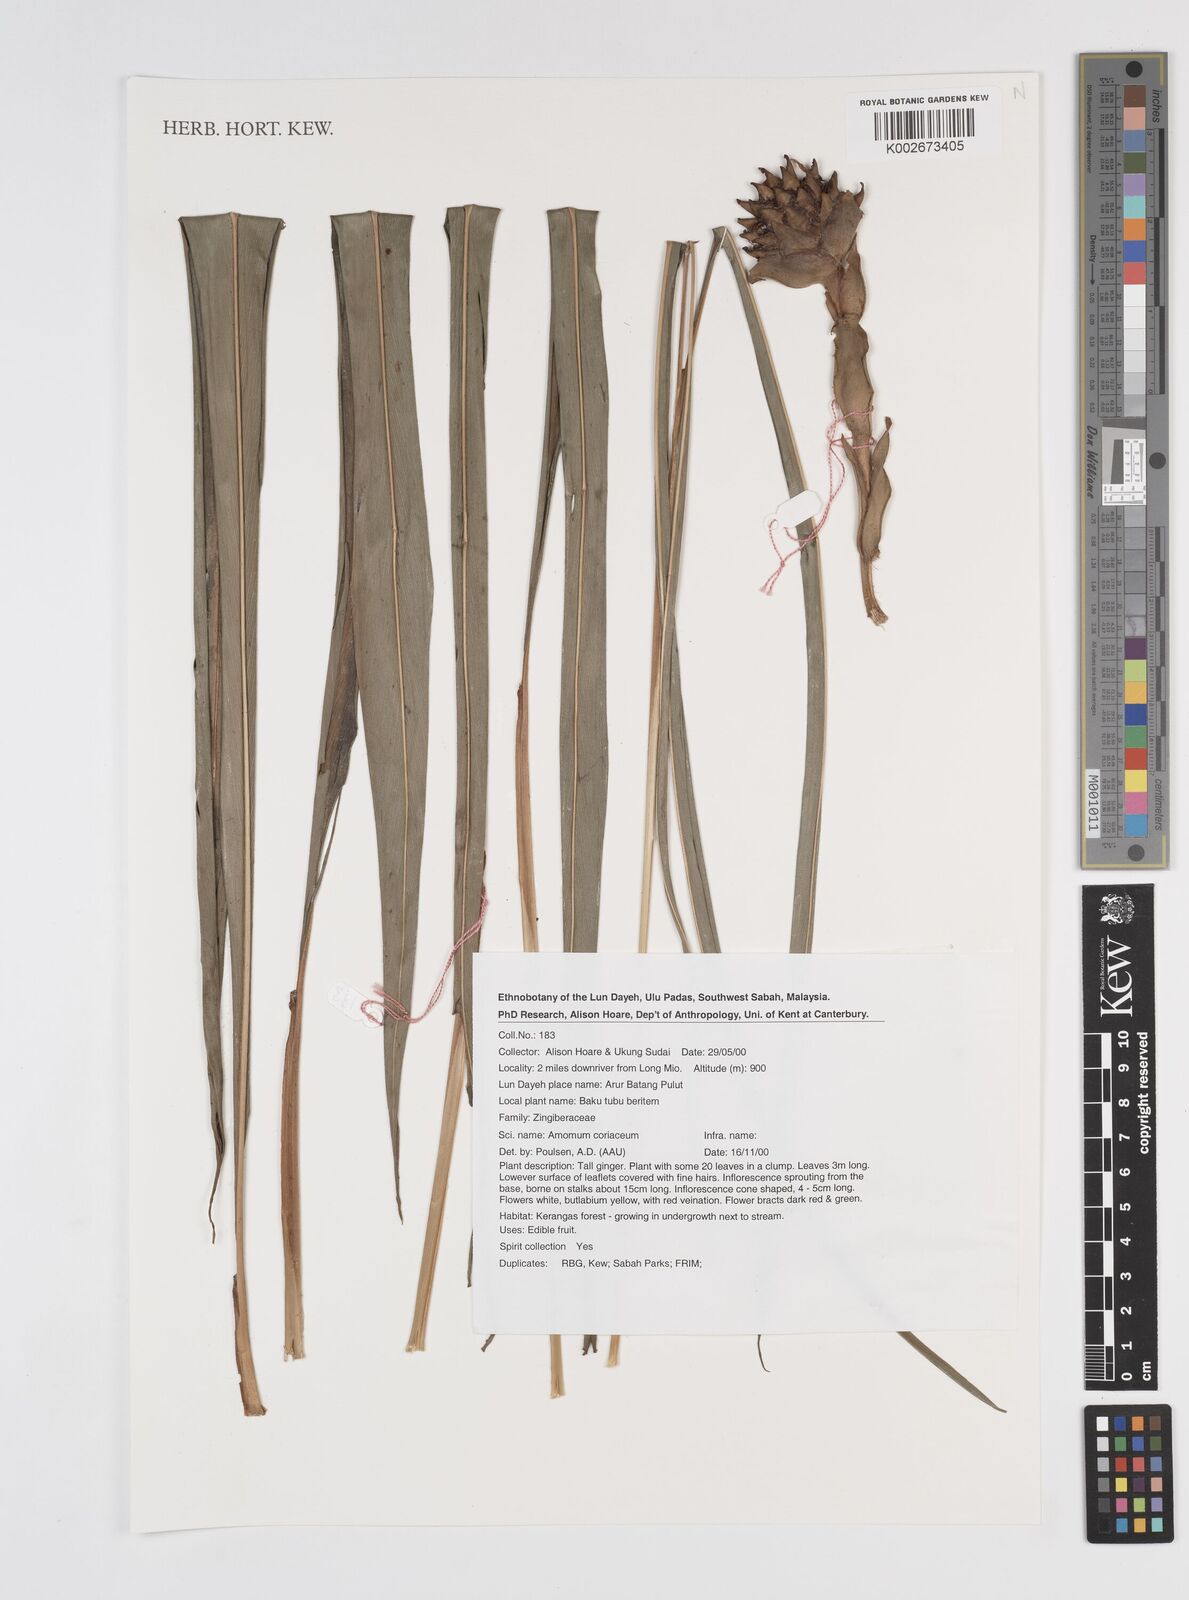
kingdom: Plantae
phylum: Tracheophyta
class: Liliopsida
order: Zingiberales
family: Zingiberaceae
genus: Conamomum
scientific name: Conamomum cylindrostachys
